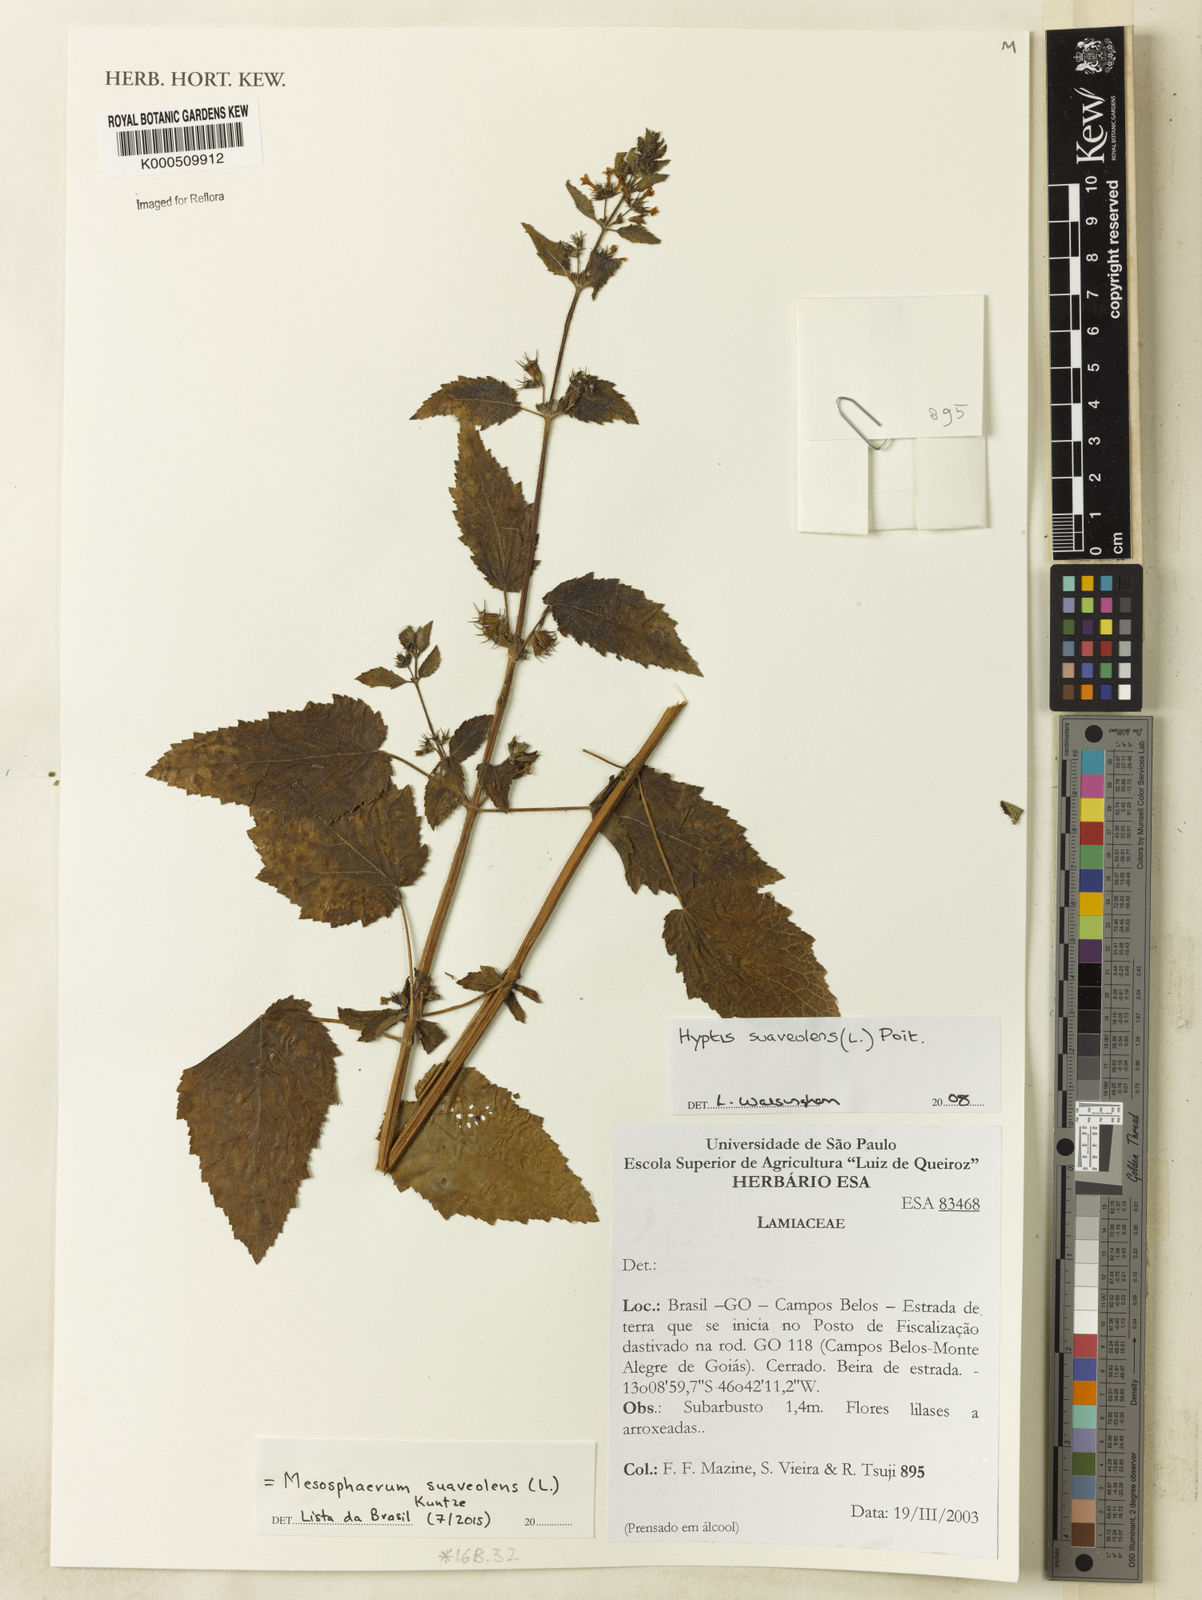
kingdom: Plantae
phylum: Tracheophyta
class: Magnoliopsida
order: Lamiales
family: Lamiaceae
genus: Mesosphaerum
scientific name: Mesosphaerum suaveolens
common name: Pignut
